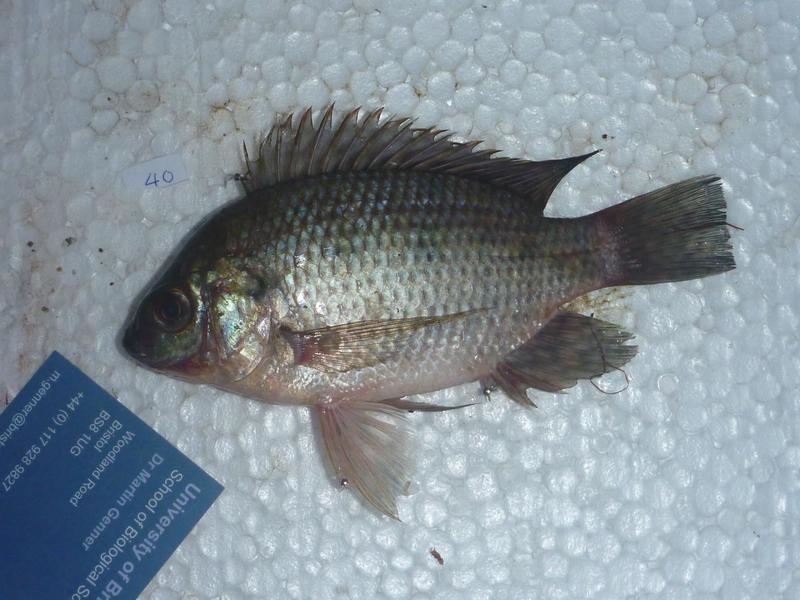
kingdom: Animalia
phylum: Chordata
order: Perciformes
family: Cichlidae
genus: Oreochromis
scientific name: Oreochromis upembae
